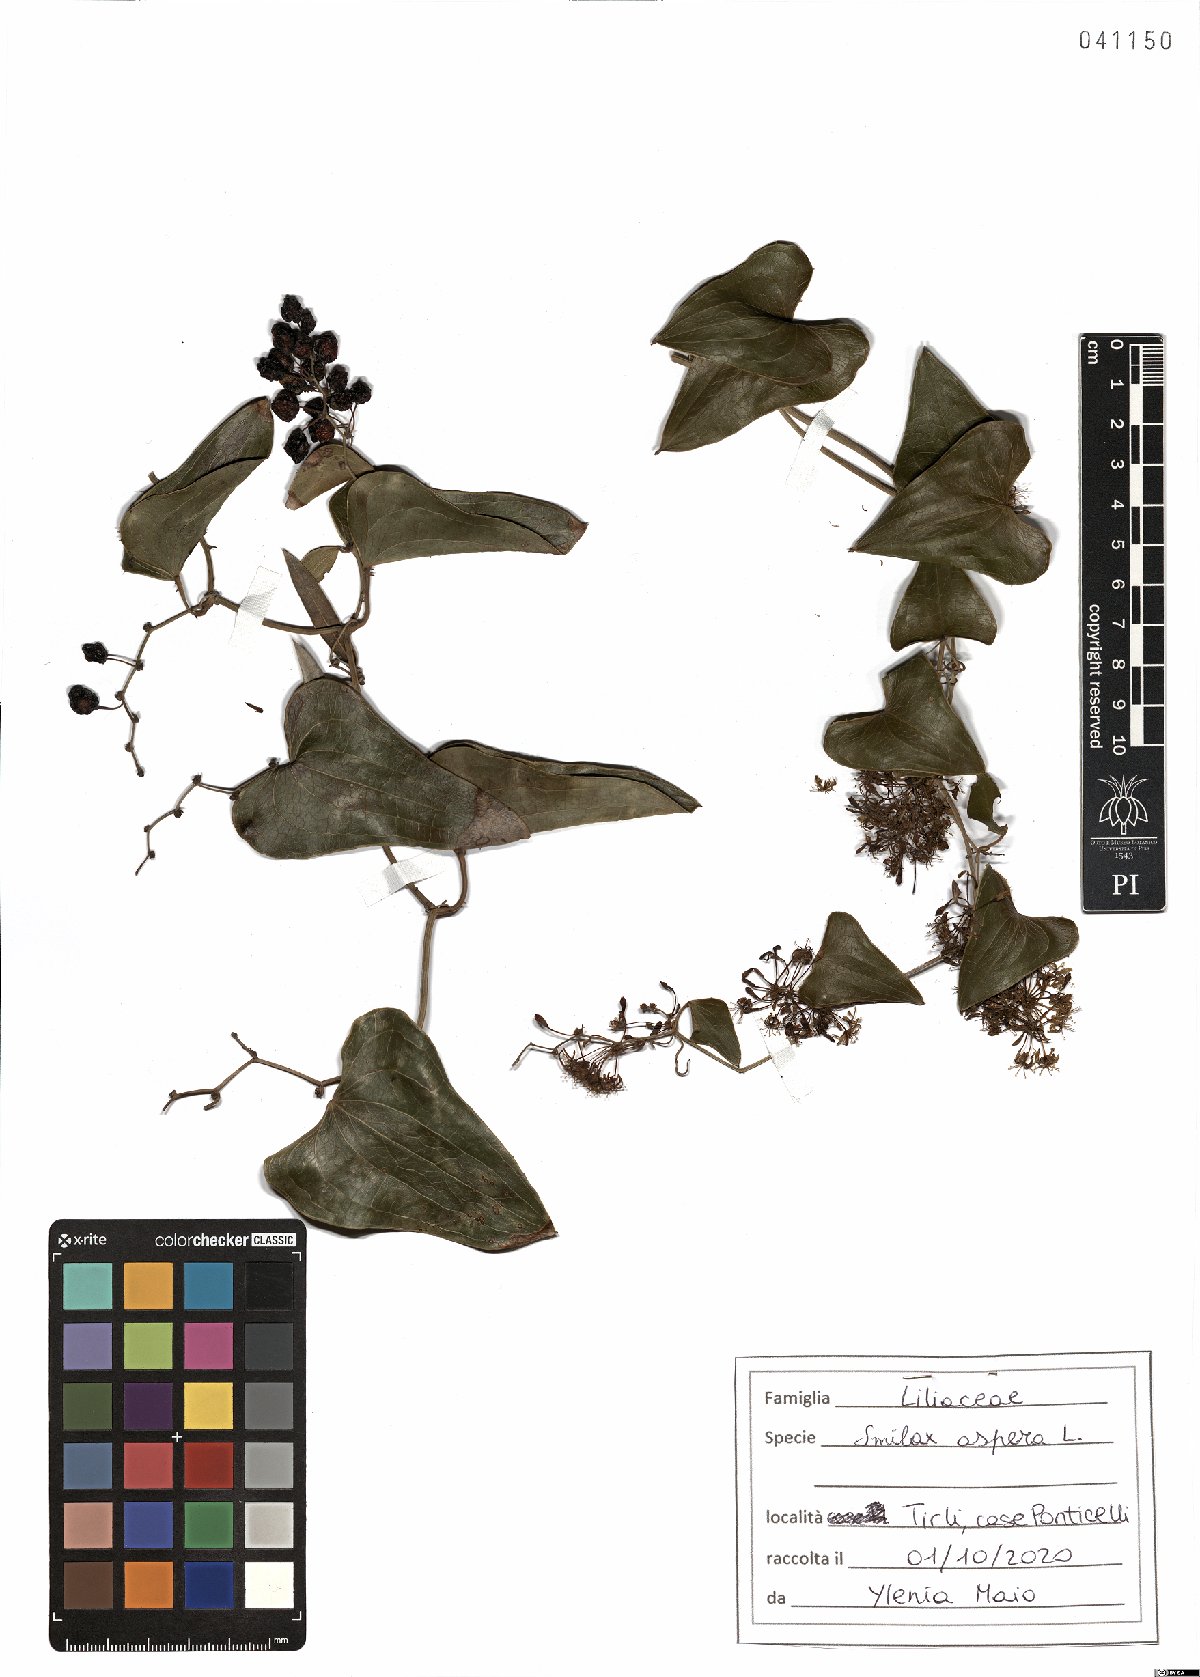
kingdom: Plantae
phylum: Tracheophyta
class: Liliopsida
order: Liliales
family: Smilacaceae
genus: Smilax
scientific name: Smilax aspera
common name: Common smilax
